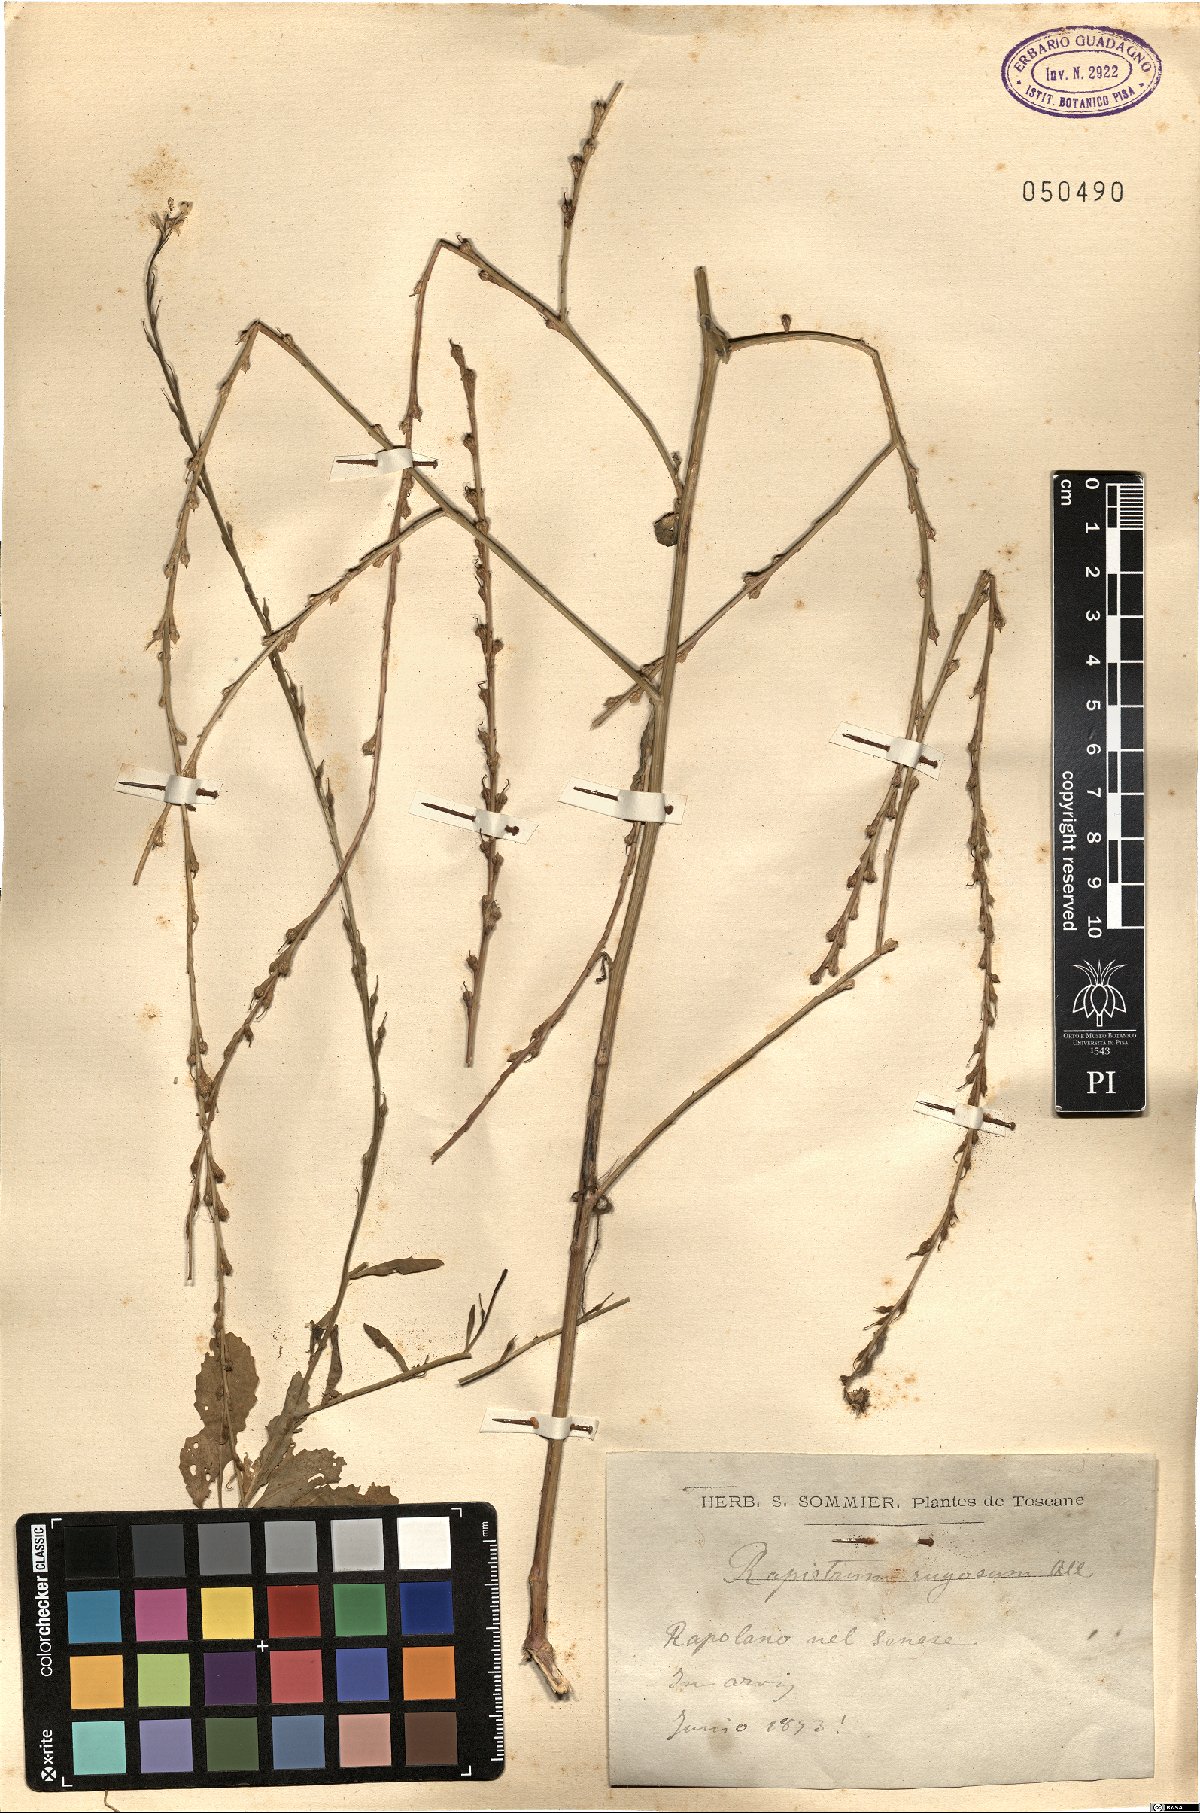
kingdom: Plantae
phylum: Tracheophyta
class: Magnoliopsida
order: Brassicales
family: Brassicaceae
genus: Rapistrum
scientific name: Rapistrum rugosum
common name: Annual bastardcabbage
